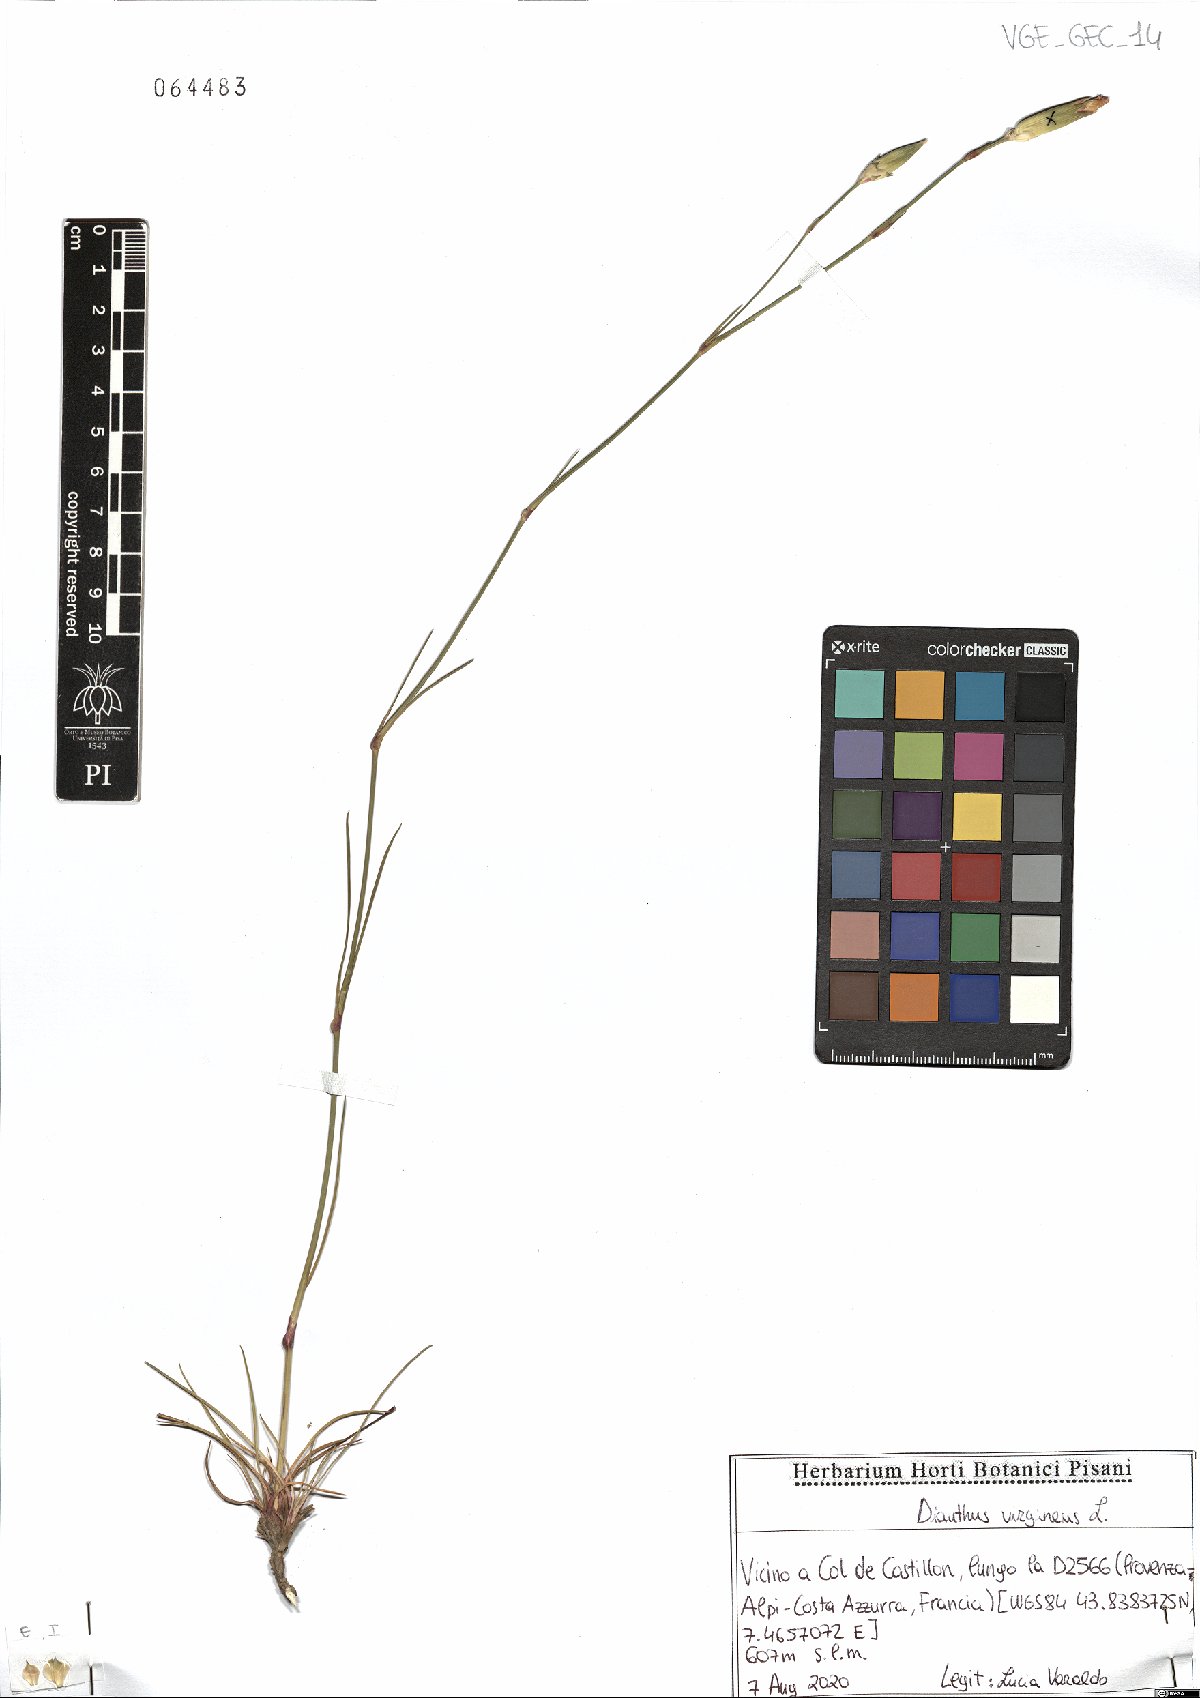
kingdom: Plantae
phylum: Tracheophyta
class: Magnoliopsida
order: Caryophyllales
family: Caryophyllaceae
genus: Dianthus
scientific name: Dianthus virgineus
